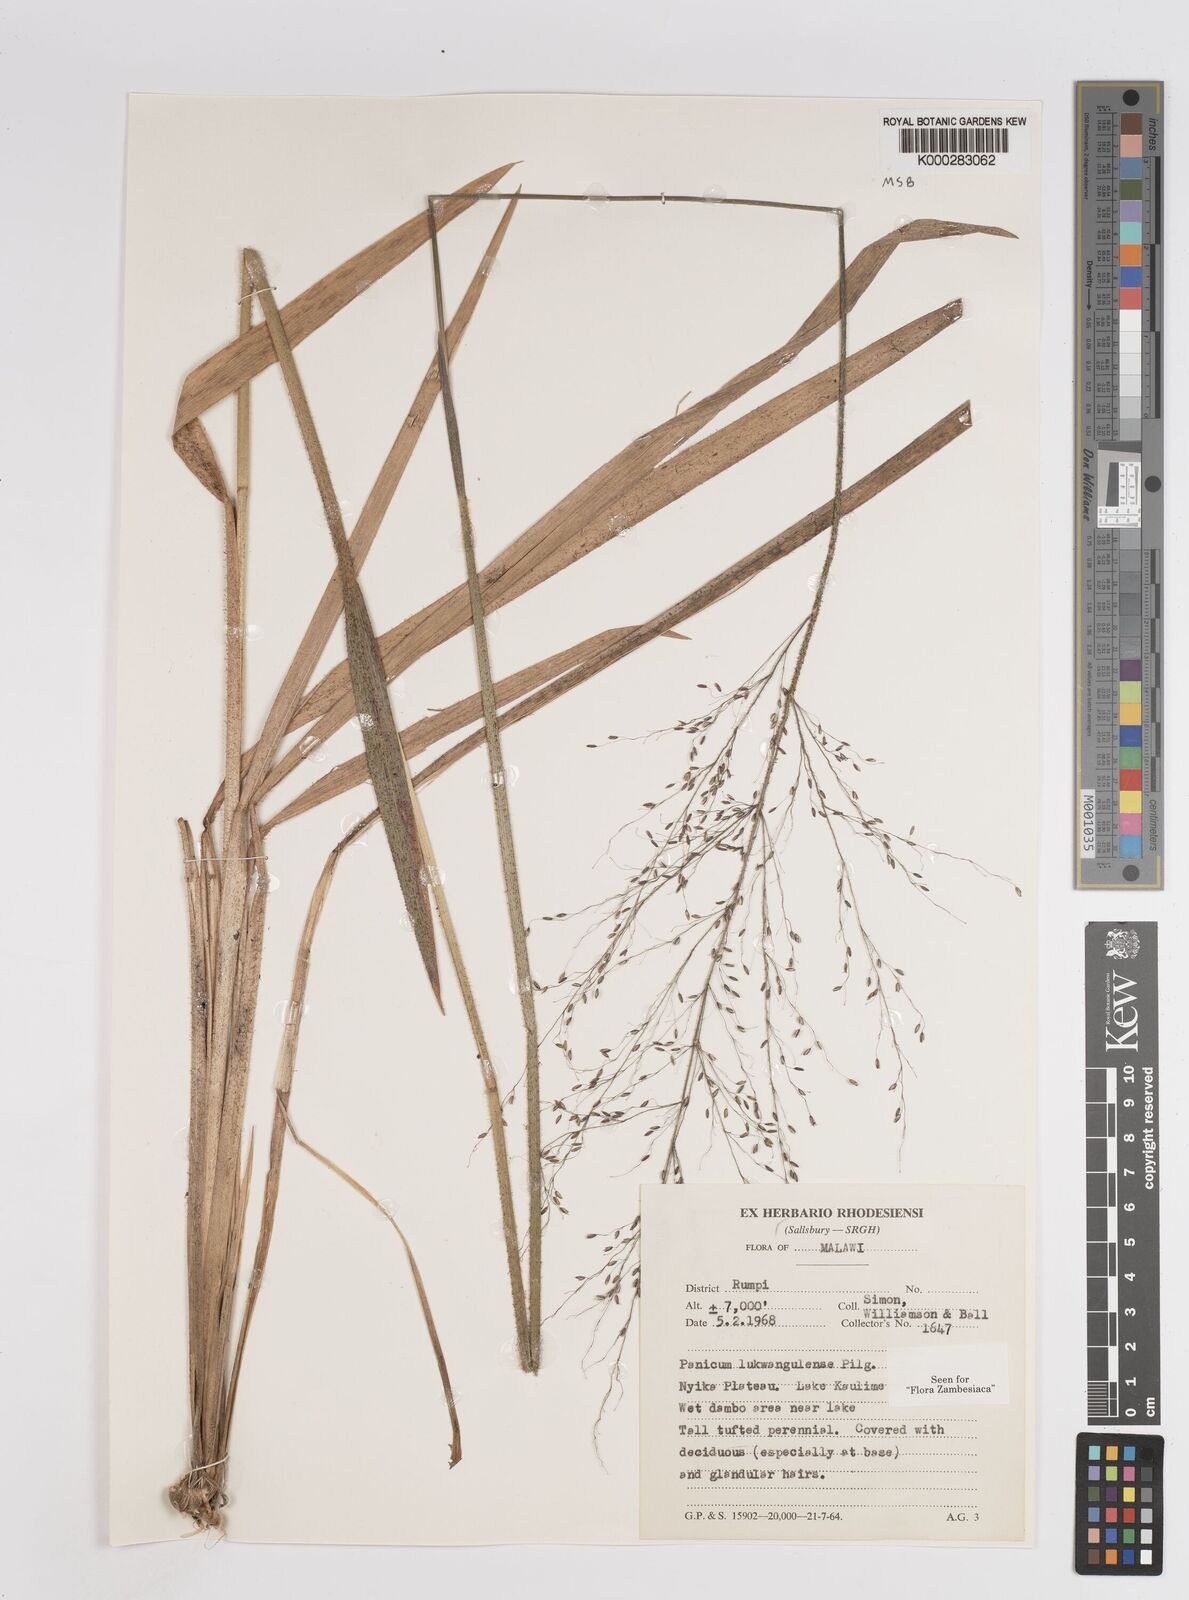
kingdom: Plantae
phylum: Tracheophyta
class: Liliopsida
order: Poales
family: Poaceae
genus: Adenochloa
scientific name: Adenochloa lukwangulense
